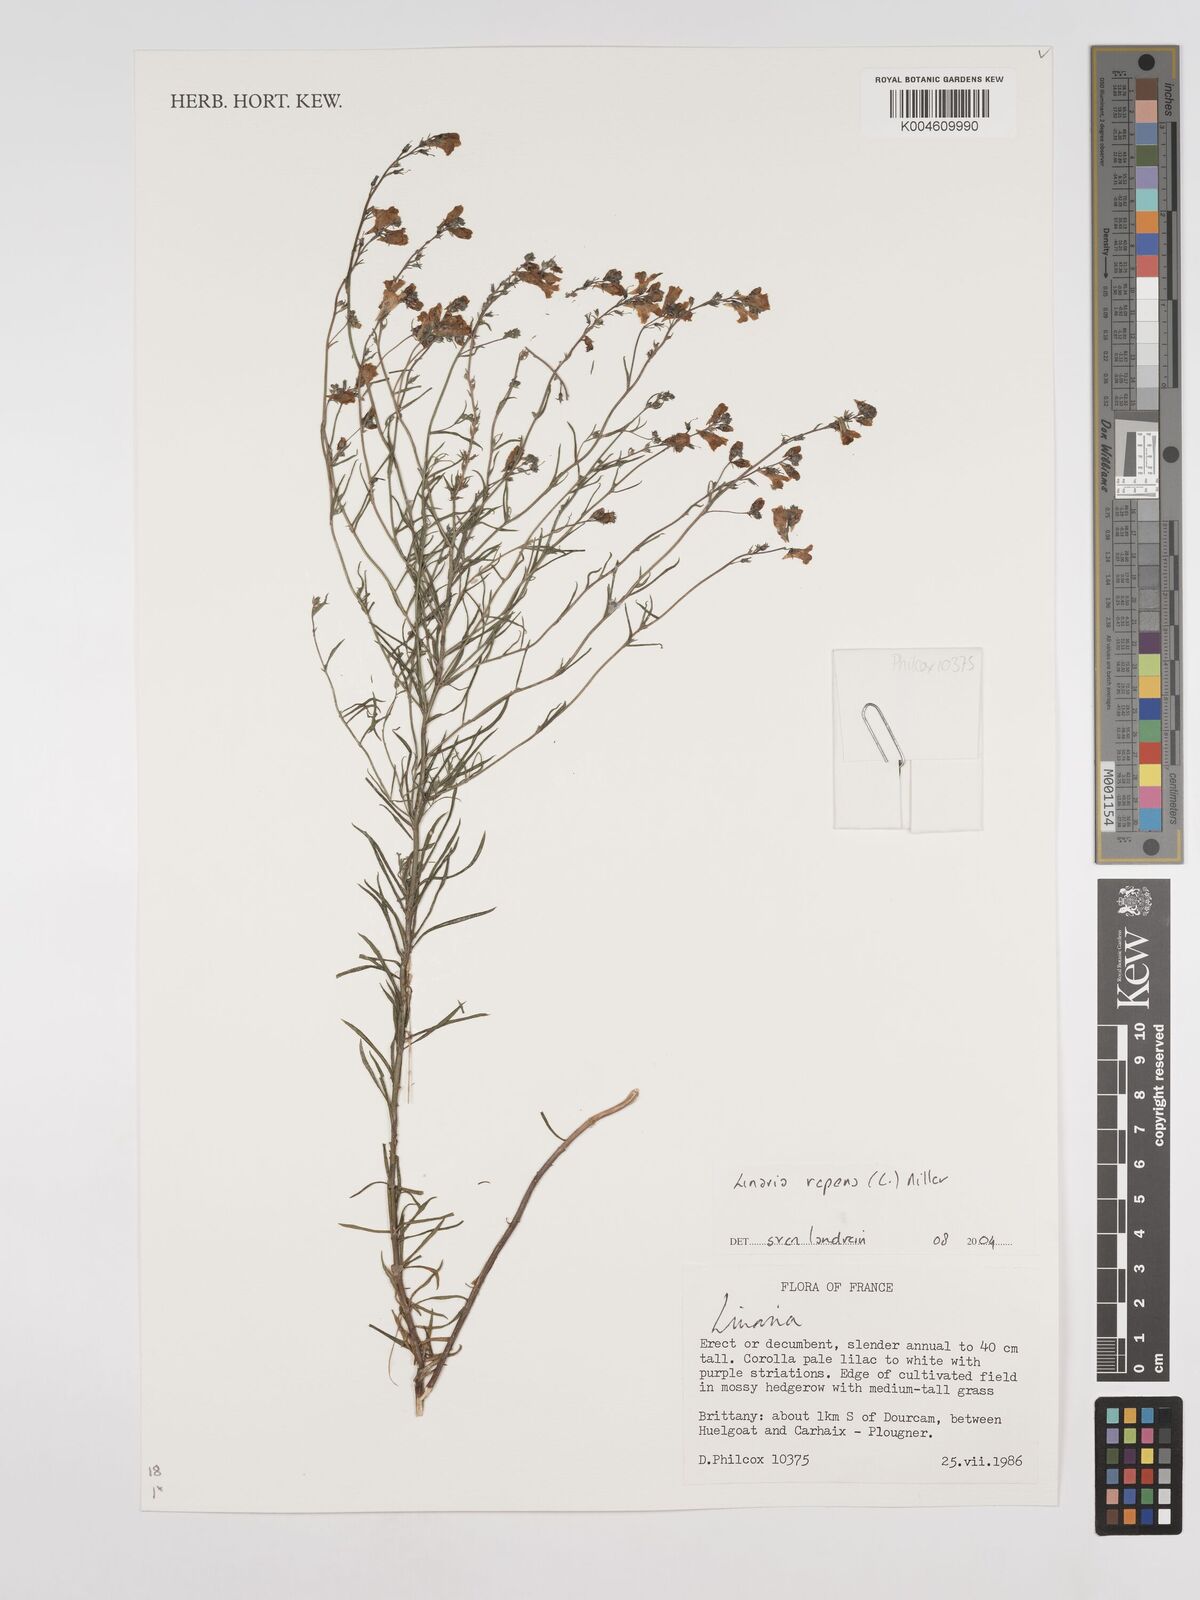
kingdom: Plantae
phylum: Tracheophyta
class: Magnoliopsida
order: Lamiales
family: Plantaginaceae
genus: Linaria
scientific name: Linaria repens
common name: Pale toadflax
